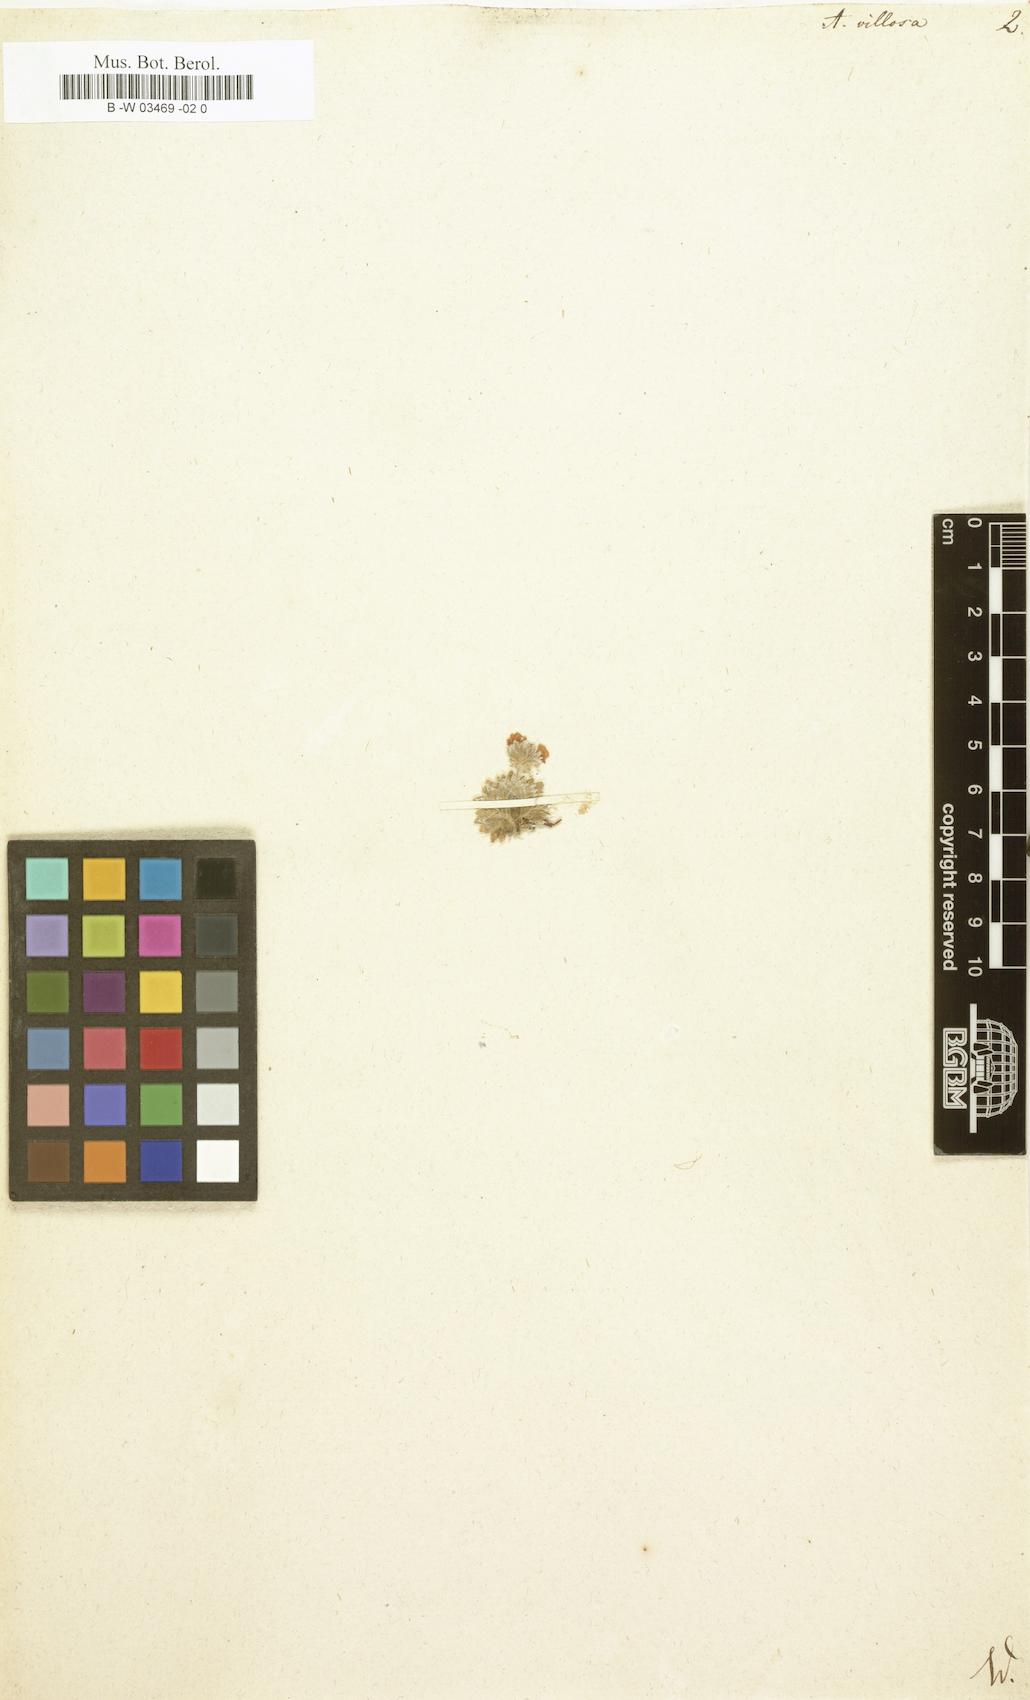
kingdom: Plantae
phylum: Tracheophyta
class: Magnoliopsida
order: Ericales
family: Primulaceae
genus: Androsace
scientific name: Androsace villosa
